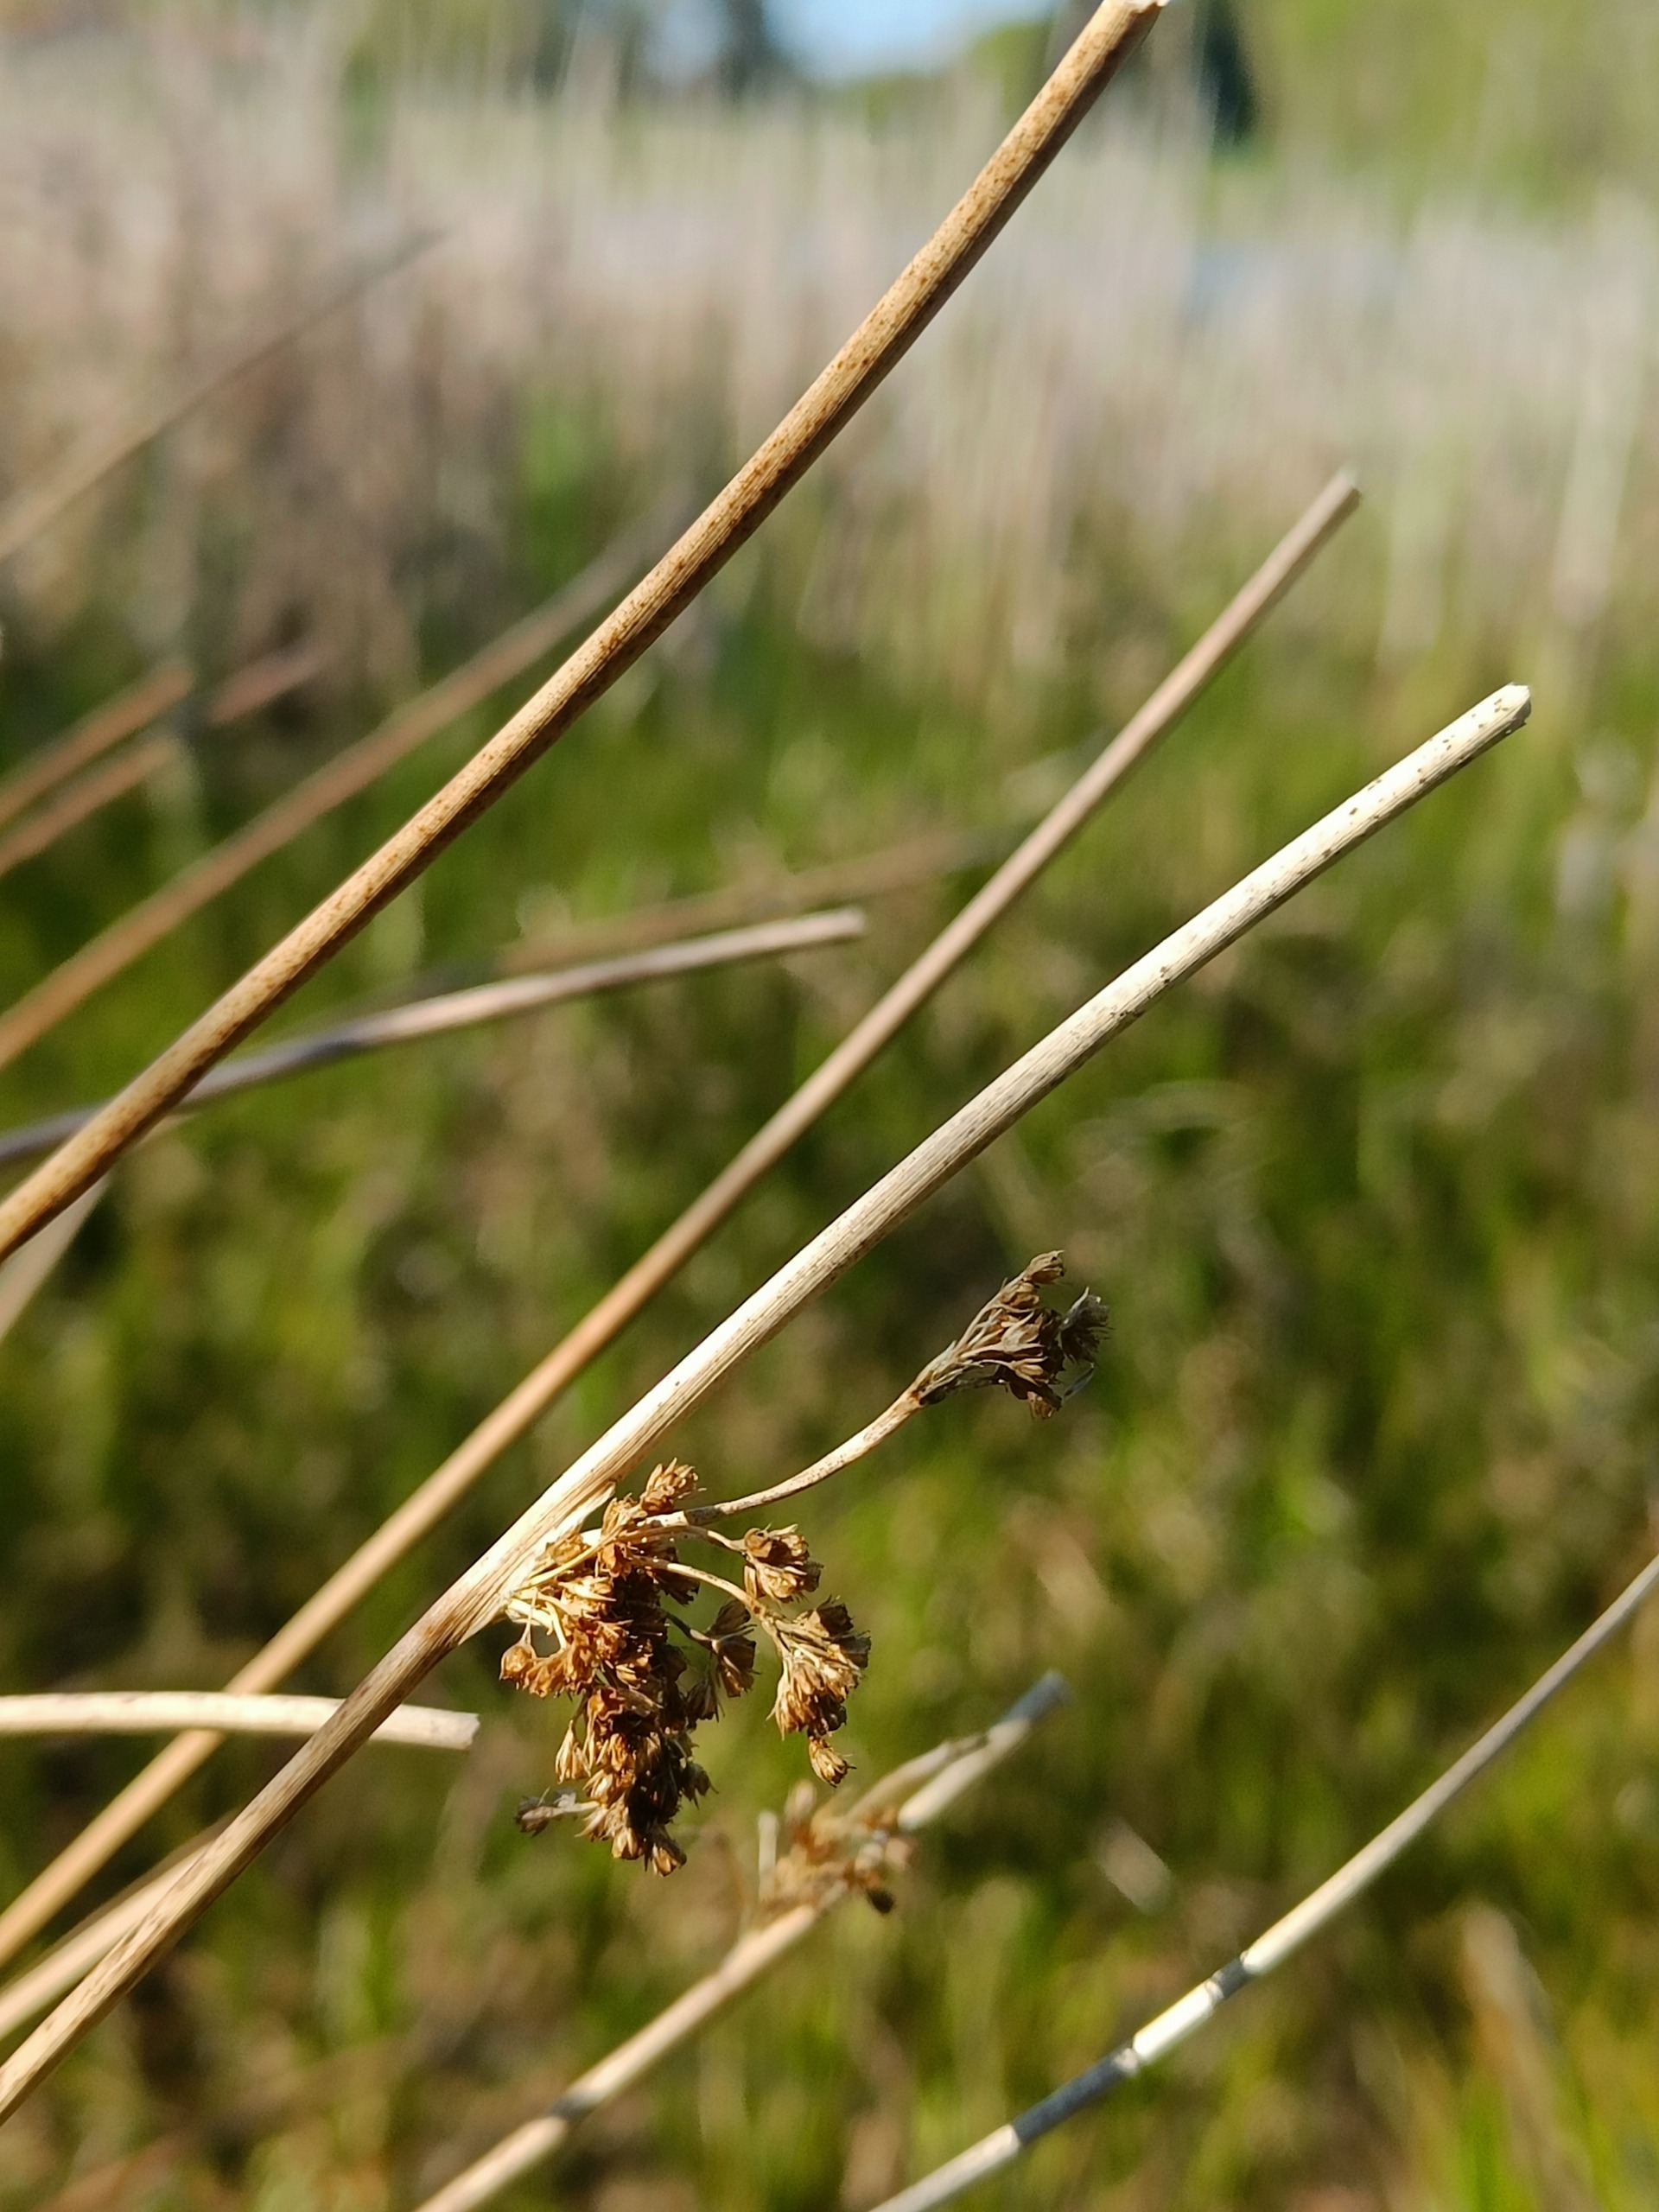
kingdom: Plantae
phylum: Tracheophyta
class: Liliopsida
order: Poales
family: Juncaceae
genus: Juncus
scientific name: Juncus effusus
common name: Lyse-siv
